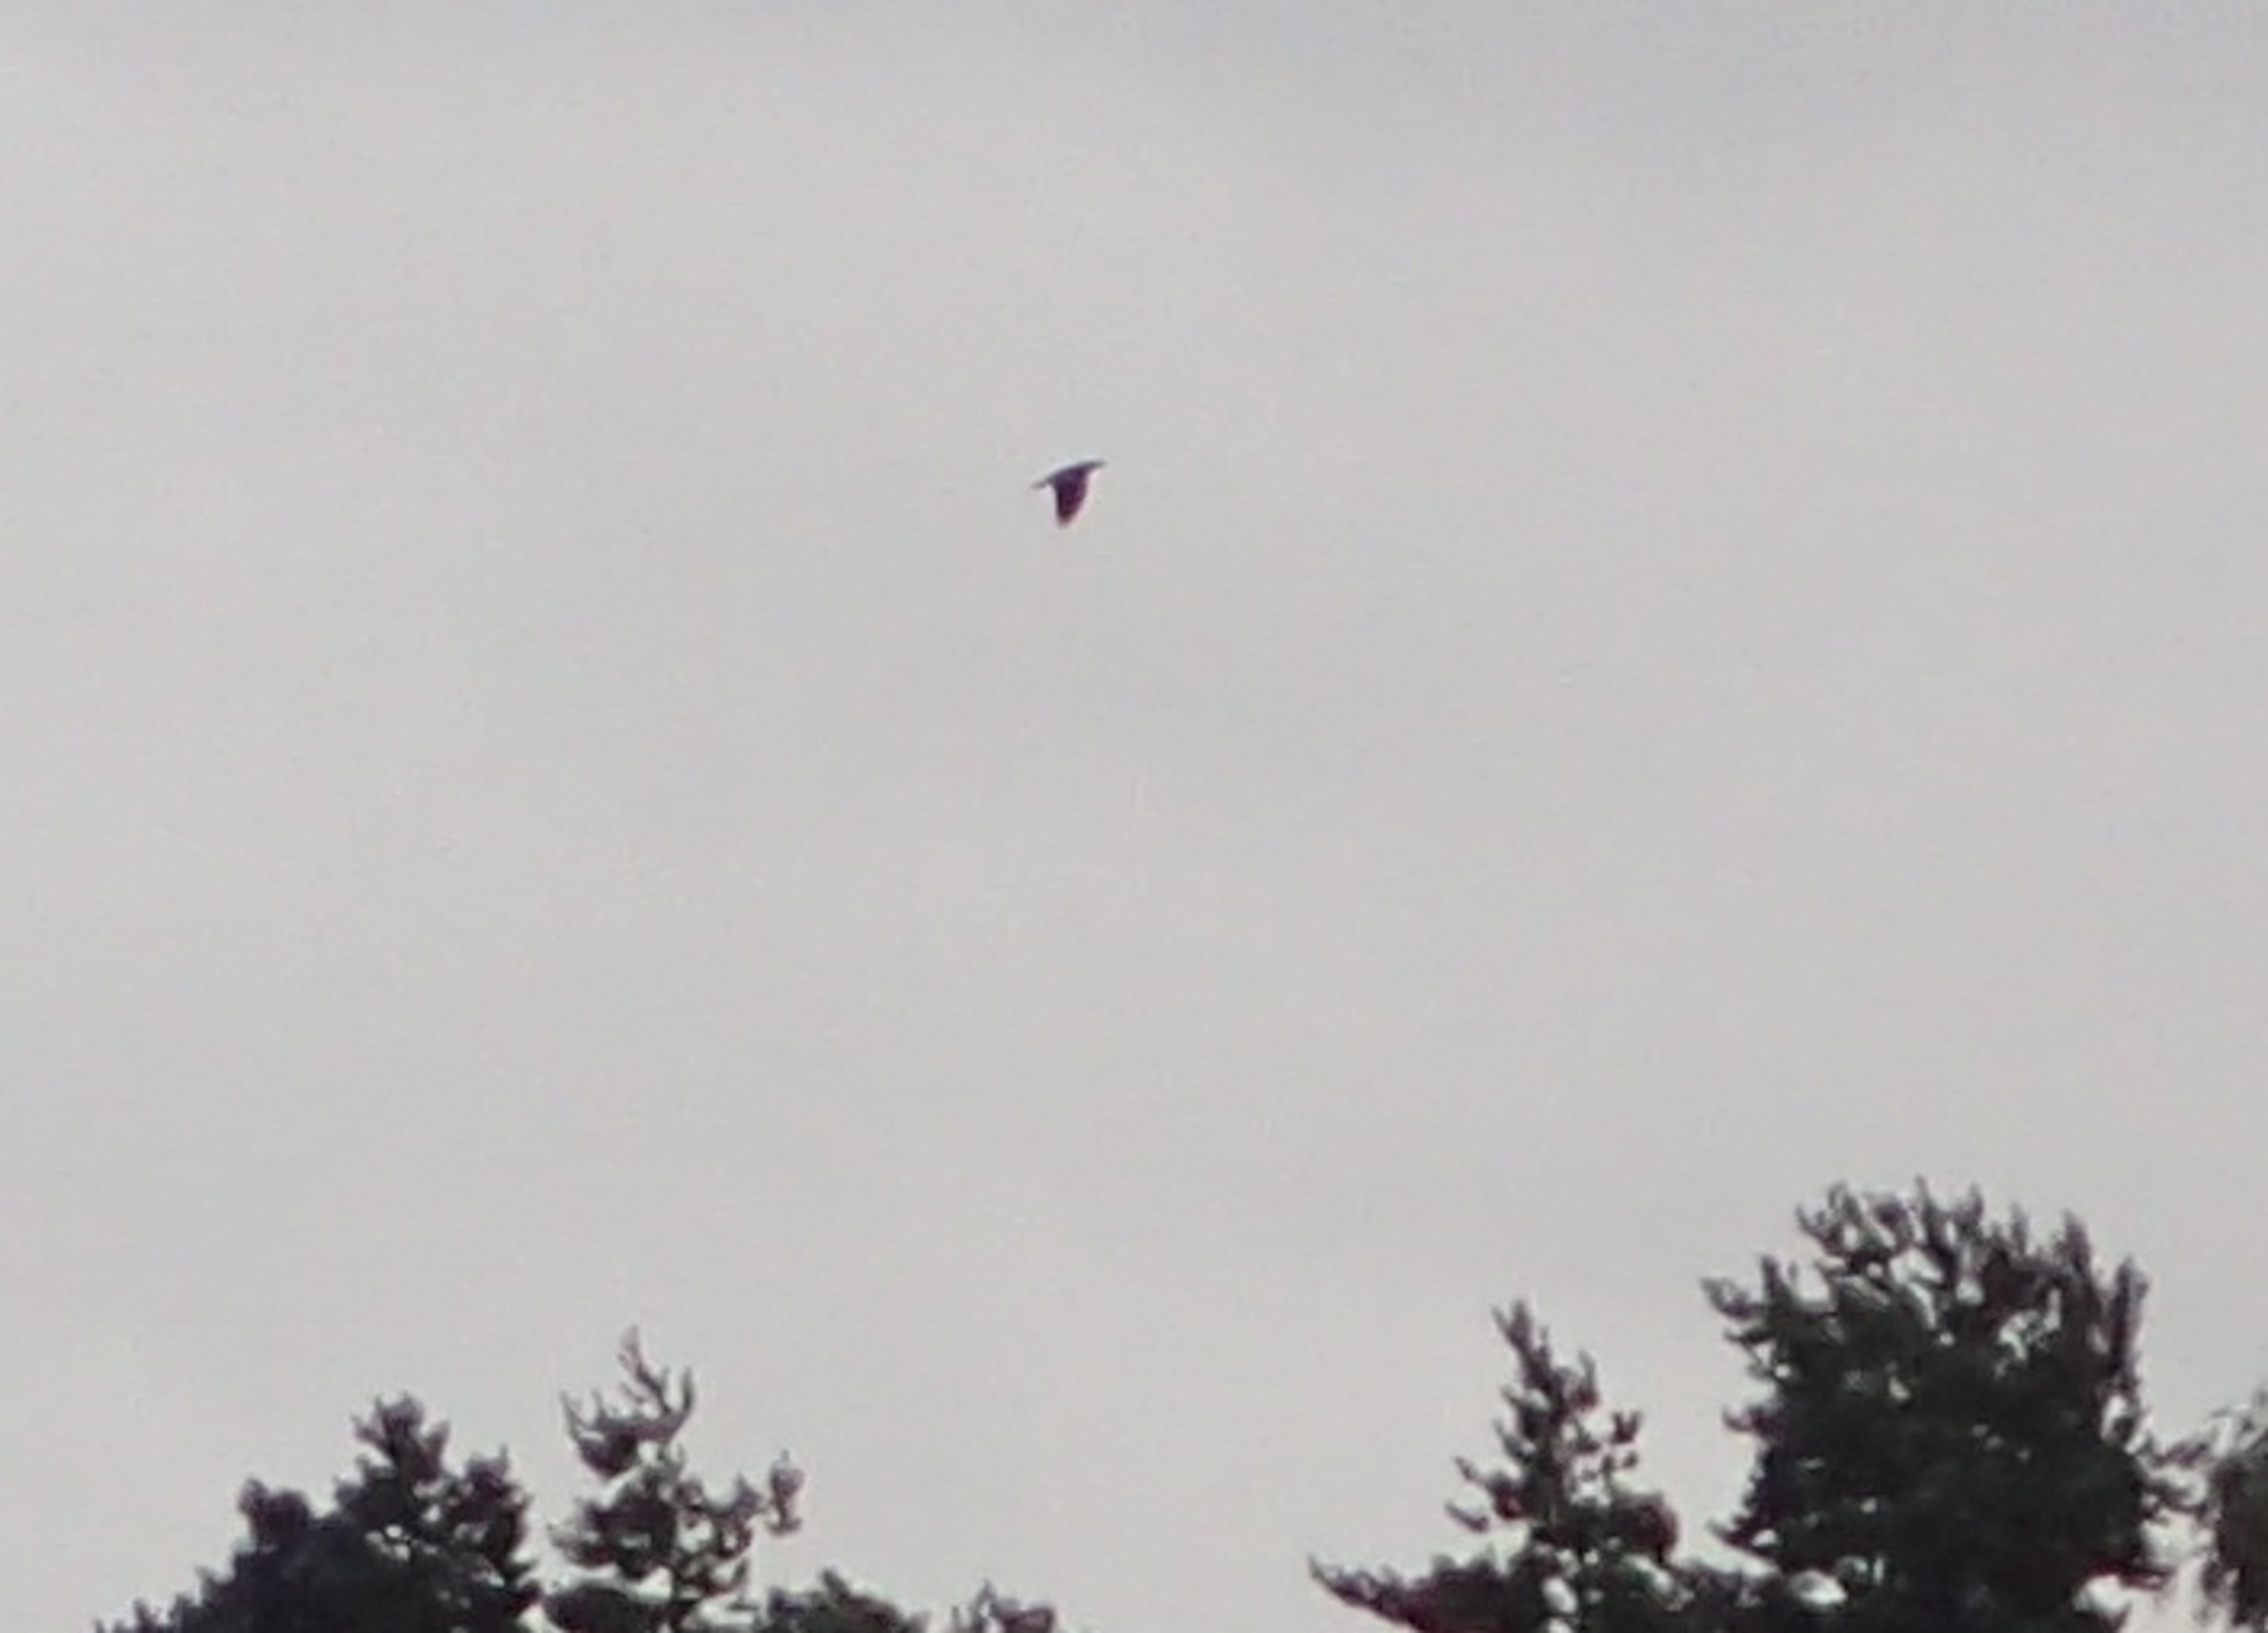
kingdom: Animalia
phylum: Chordata
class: Aves
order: Passeriformes
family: Corvidae
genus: Corvus
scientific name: Corvus corax
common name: Ravn
